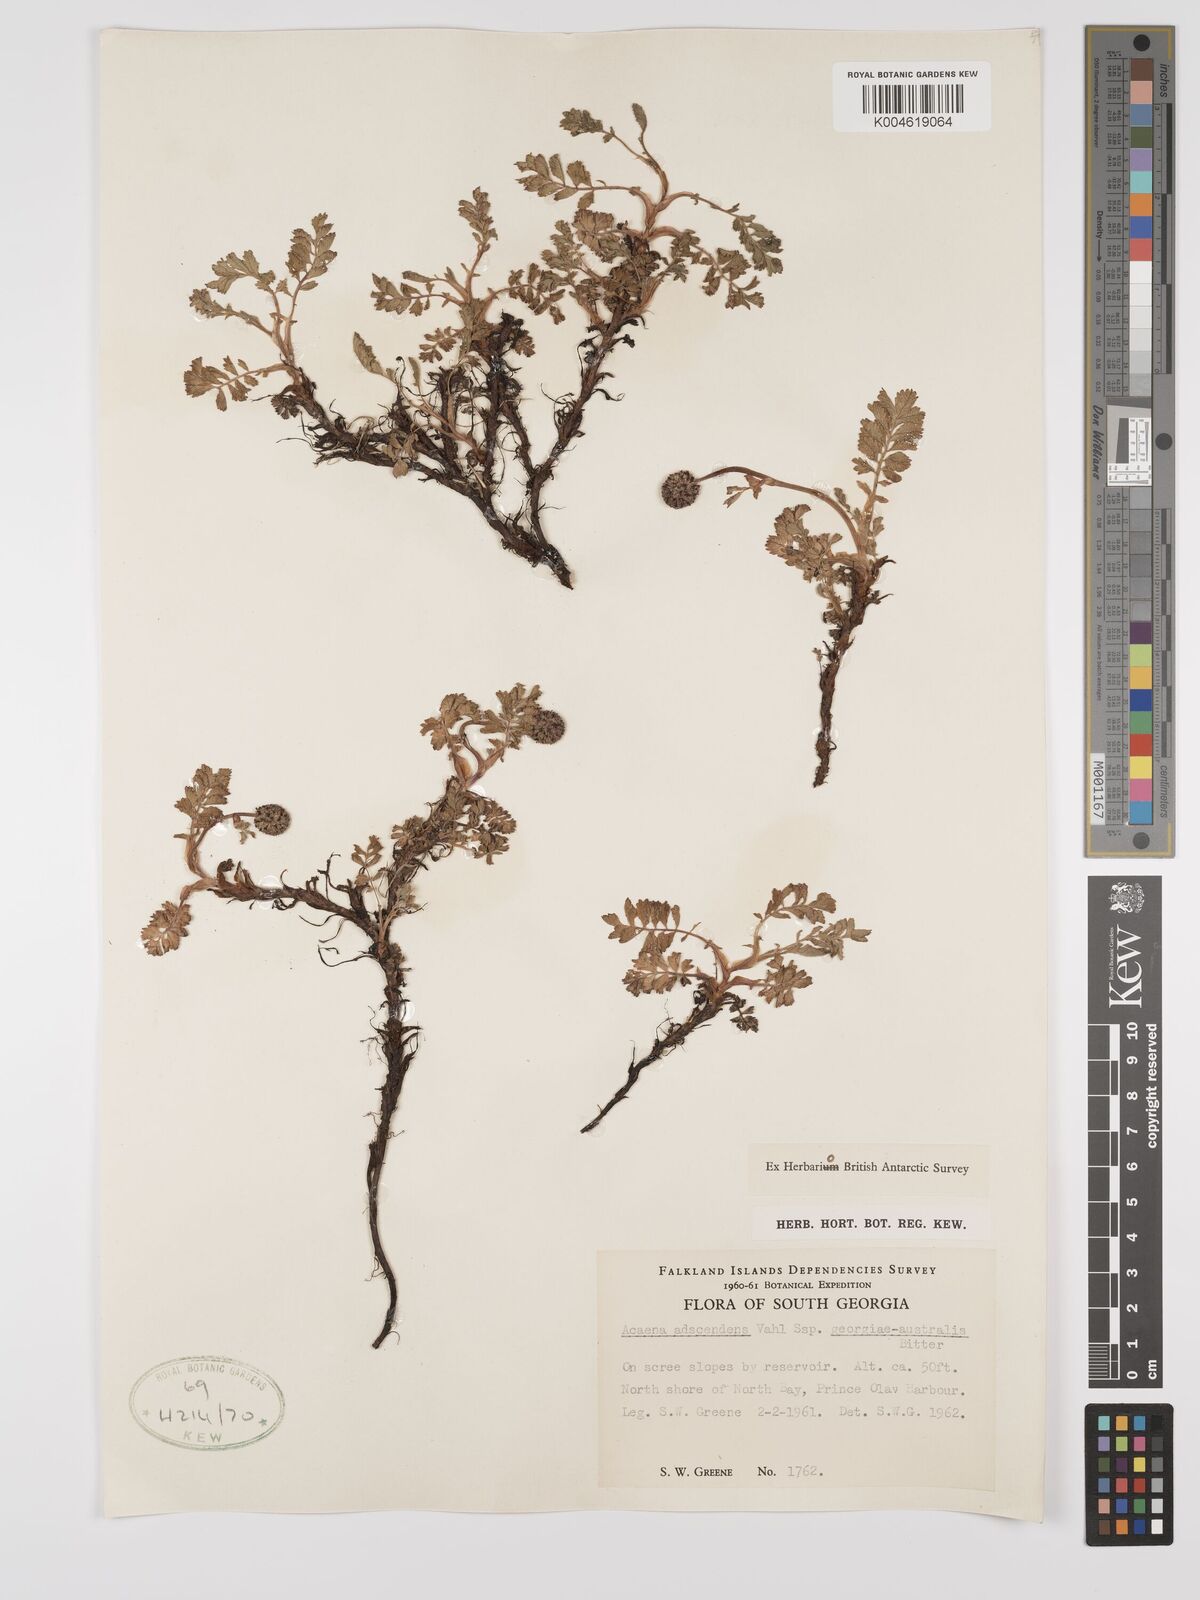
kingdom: Plantae
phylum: Tracheophyta
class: Magnoliopsida
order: Rosales
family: Rosaceae
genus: Acaena
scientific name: Acaena magellanica
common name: New zealand burr
